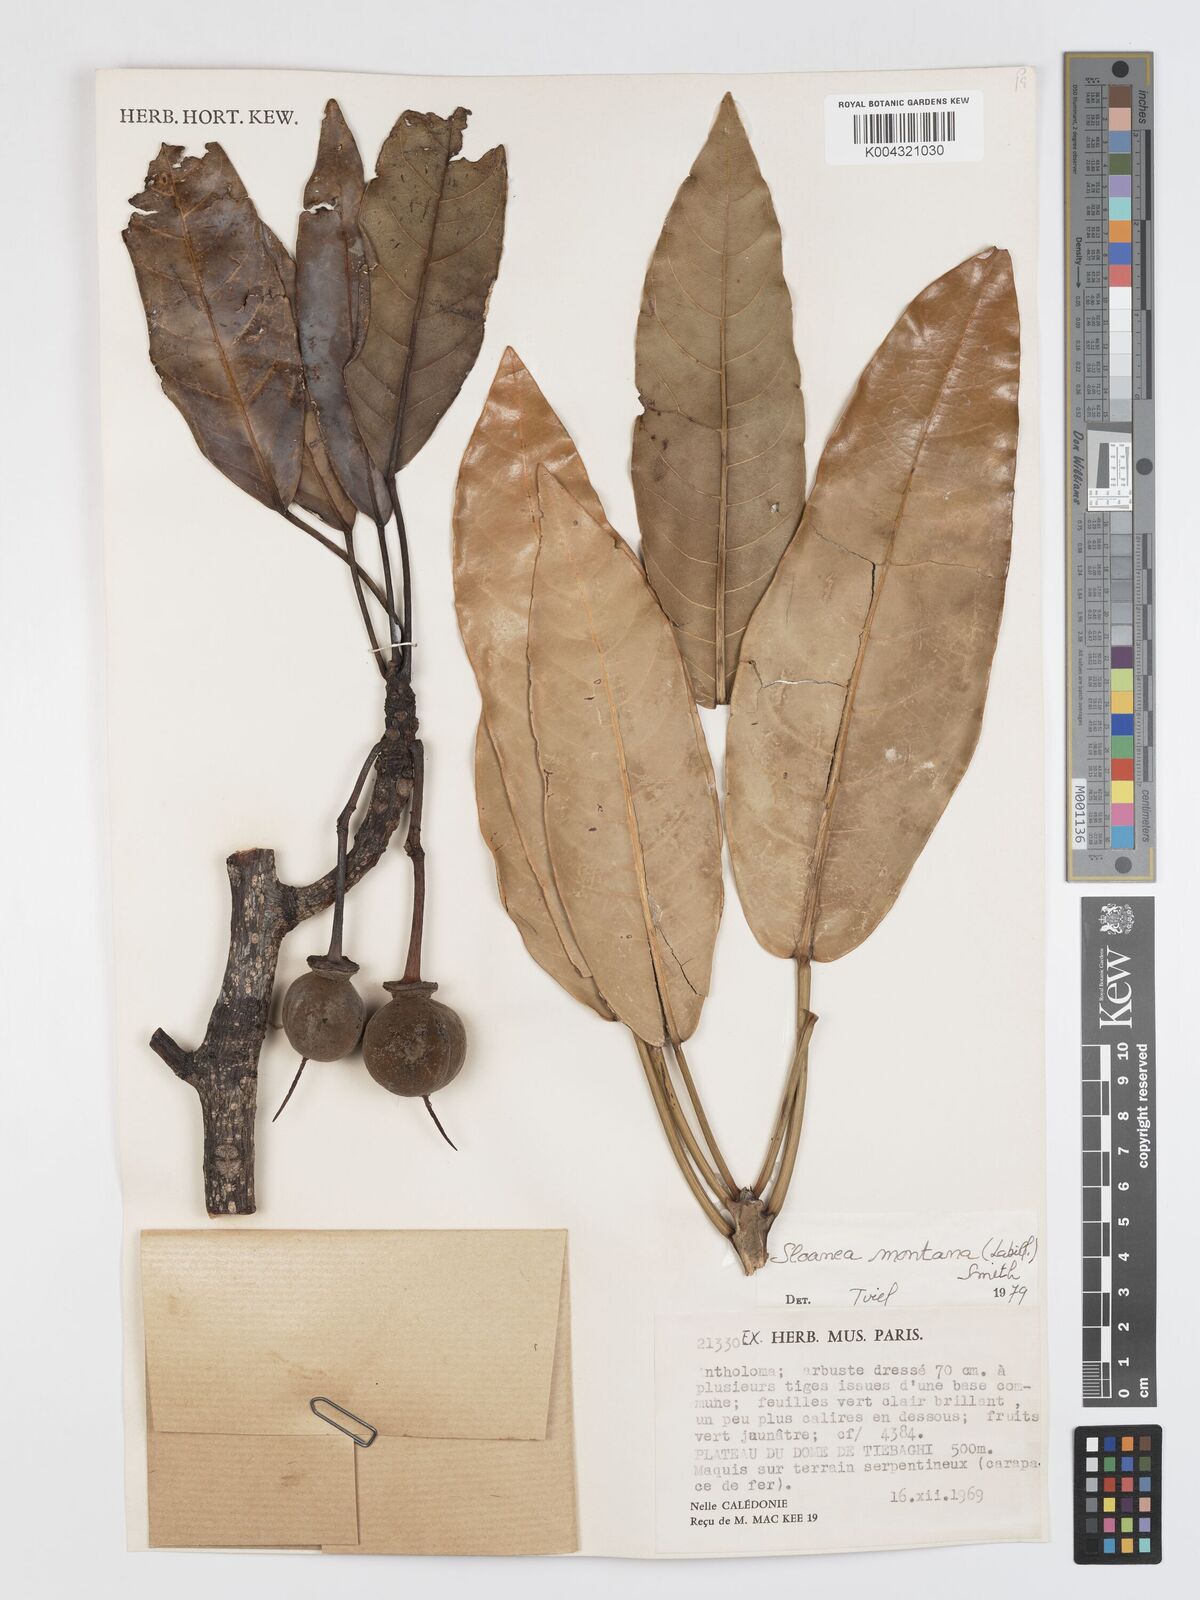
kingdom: Plantae
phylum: Tracheophyta
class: Magnoliopsida
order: Oxalidales
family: Elaeocarpaceae
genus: Sloanea
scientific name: Sloanea montana
